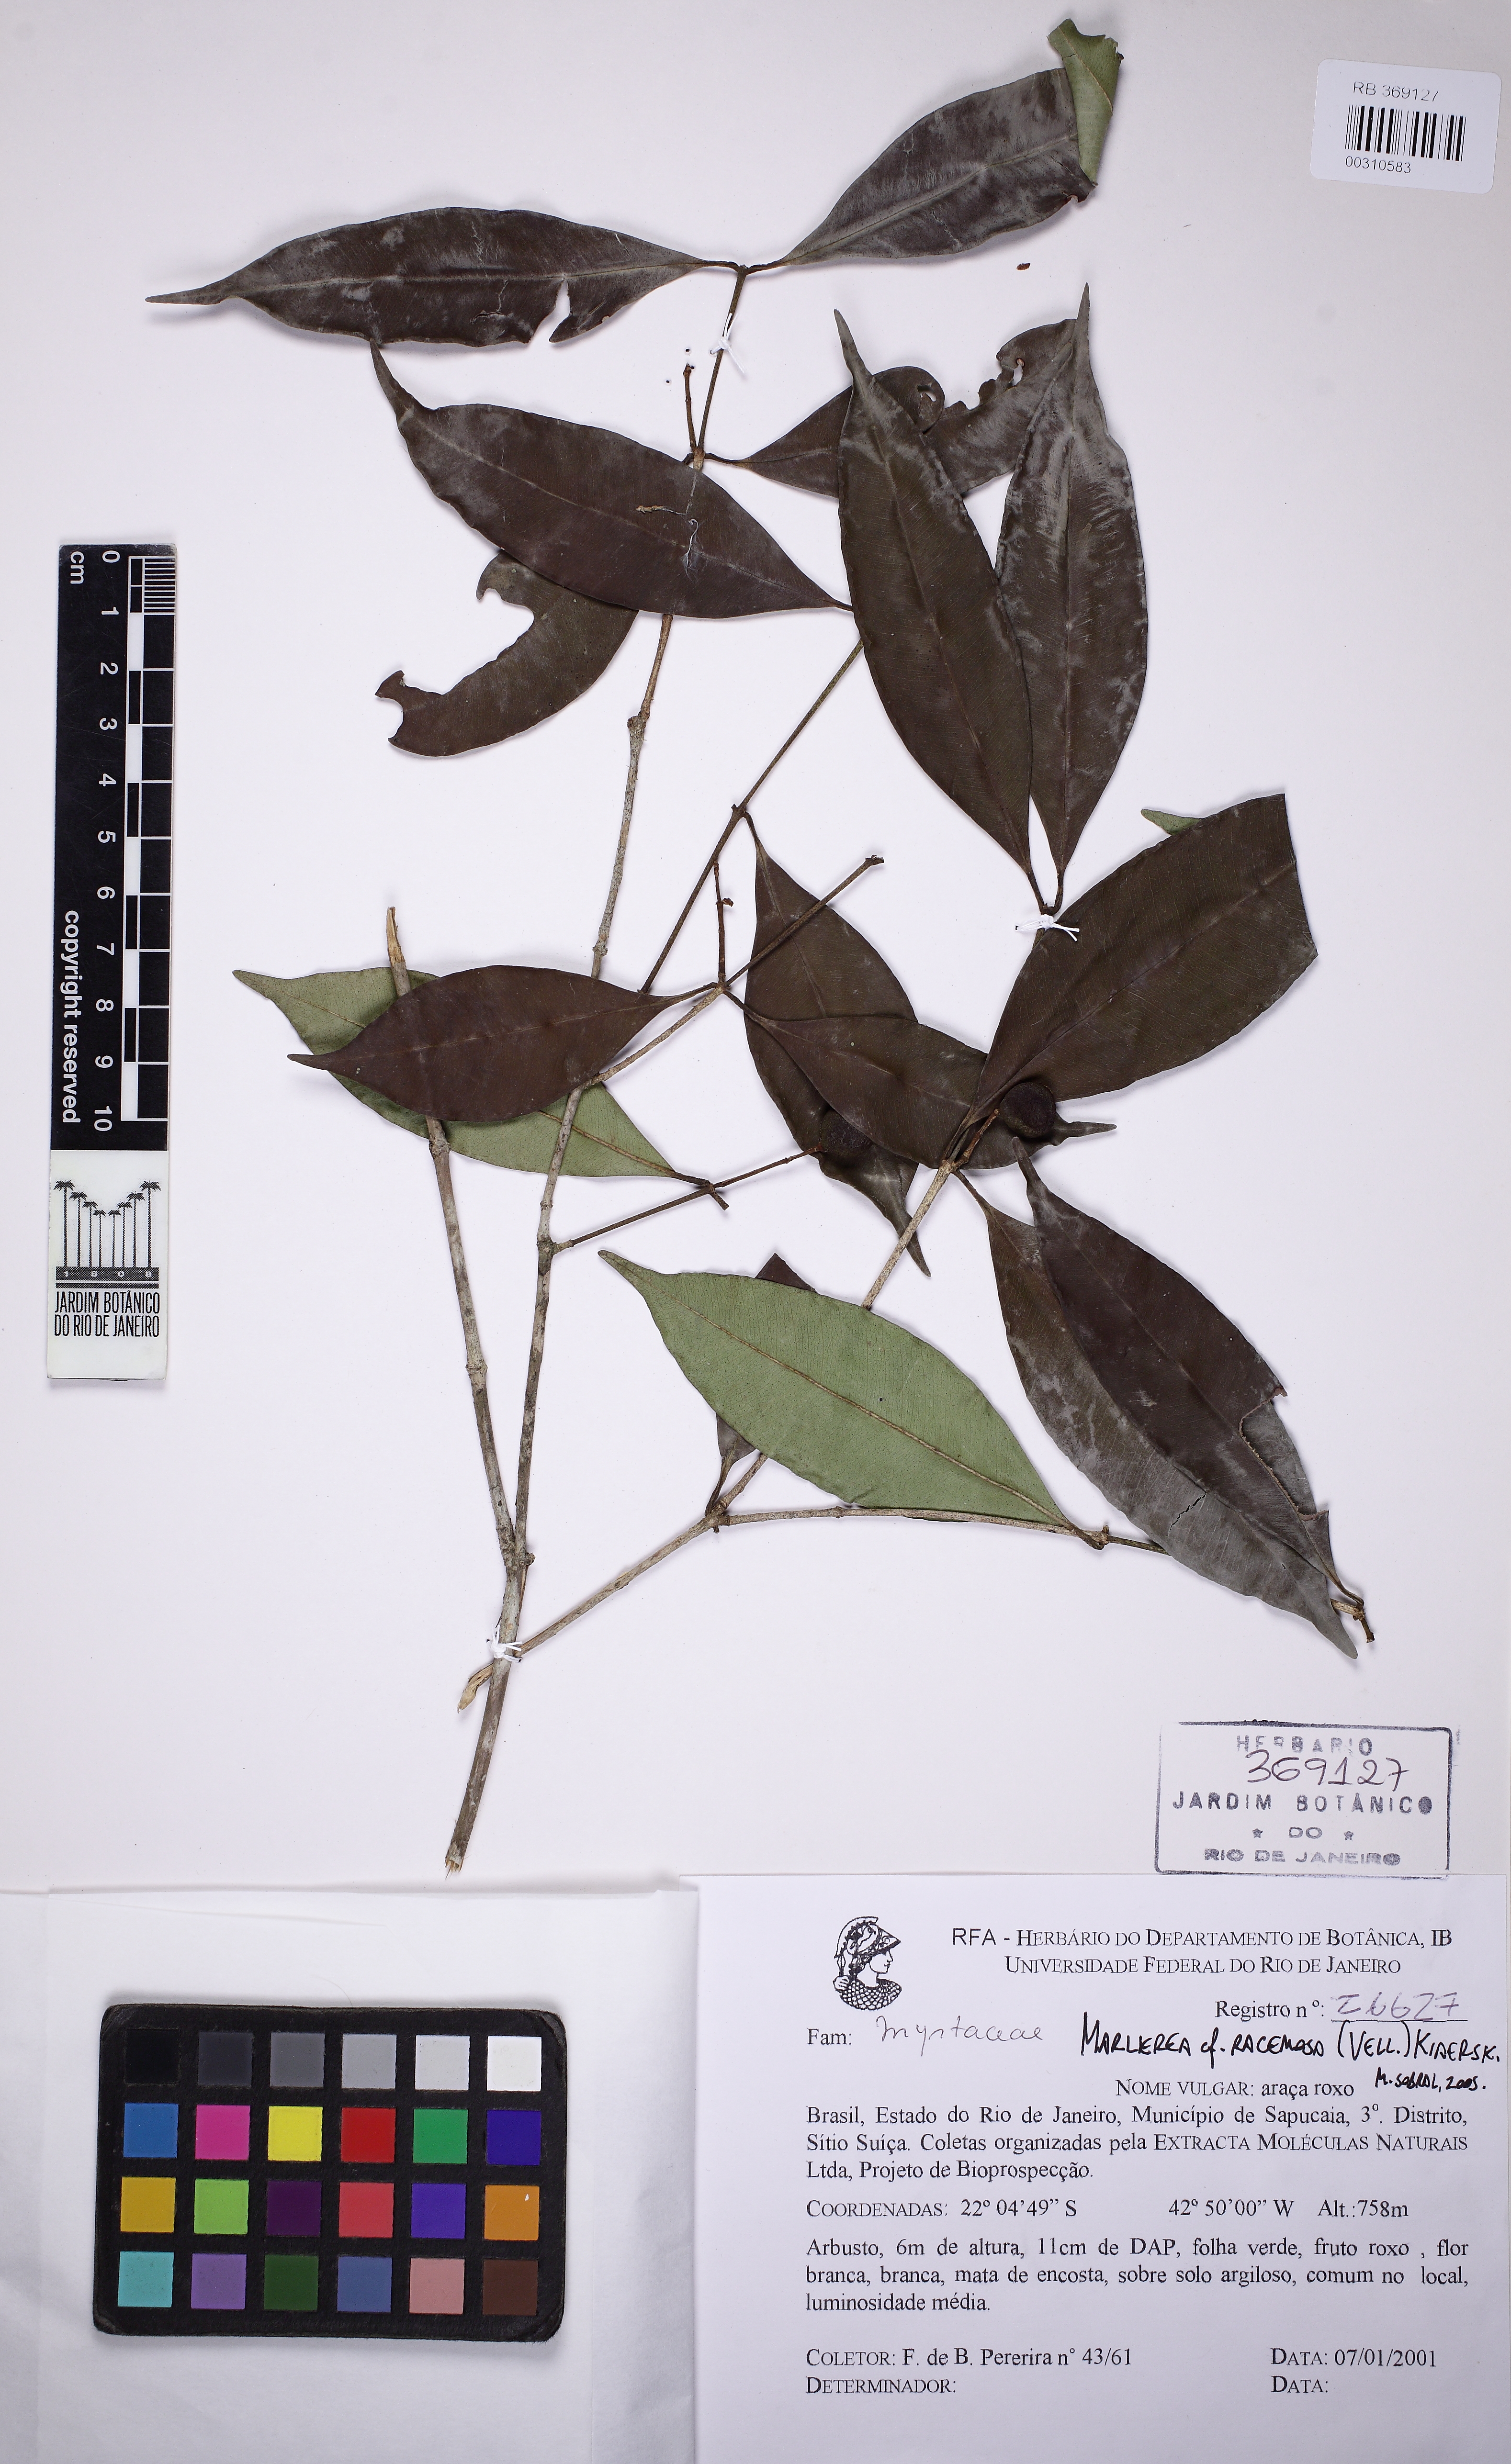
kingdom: Plantae
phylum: Tracheophyta
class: Magnoliopsida
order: Myrtales
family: Myrtaceae
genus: Myrcia
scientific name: Myrcia vellozoi
